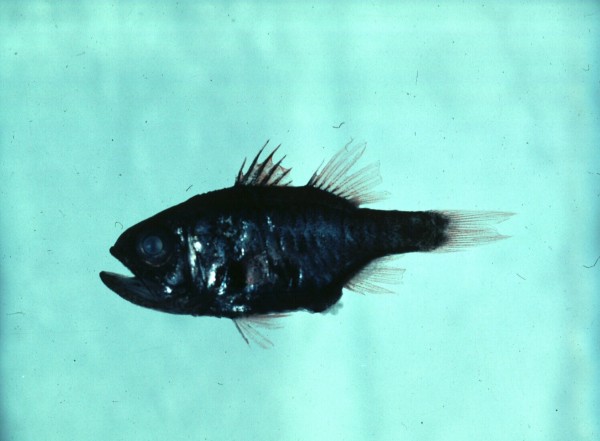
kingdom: Animalia
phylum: Chordata
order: Perciformes
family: Apogonidae
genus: Siphamia
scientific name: Siphamia tubulata
